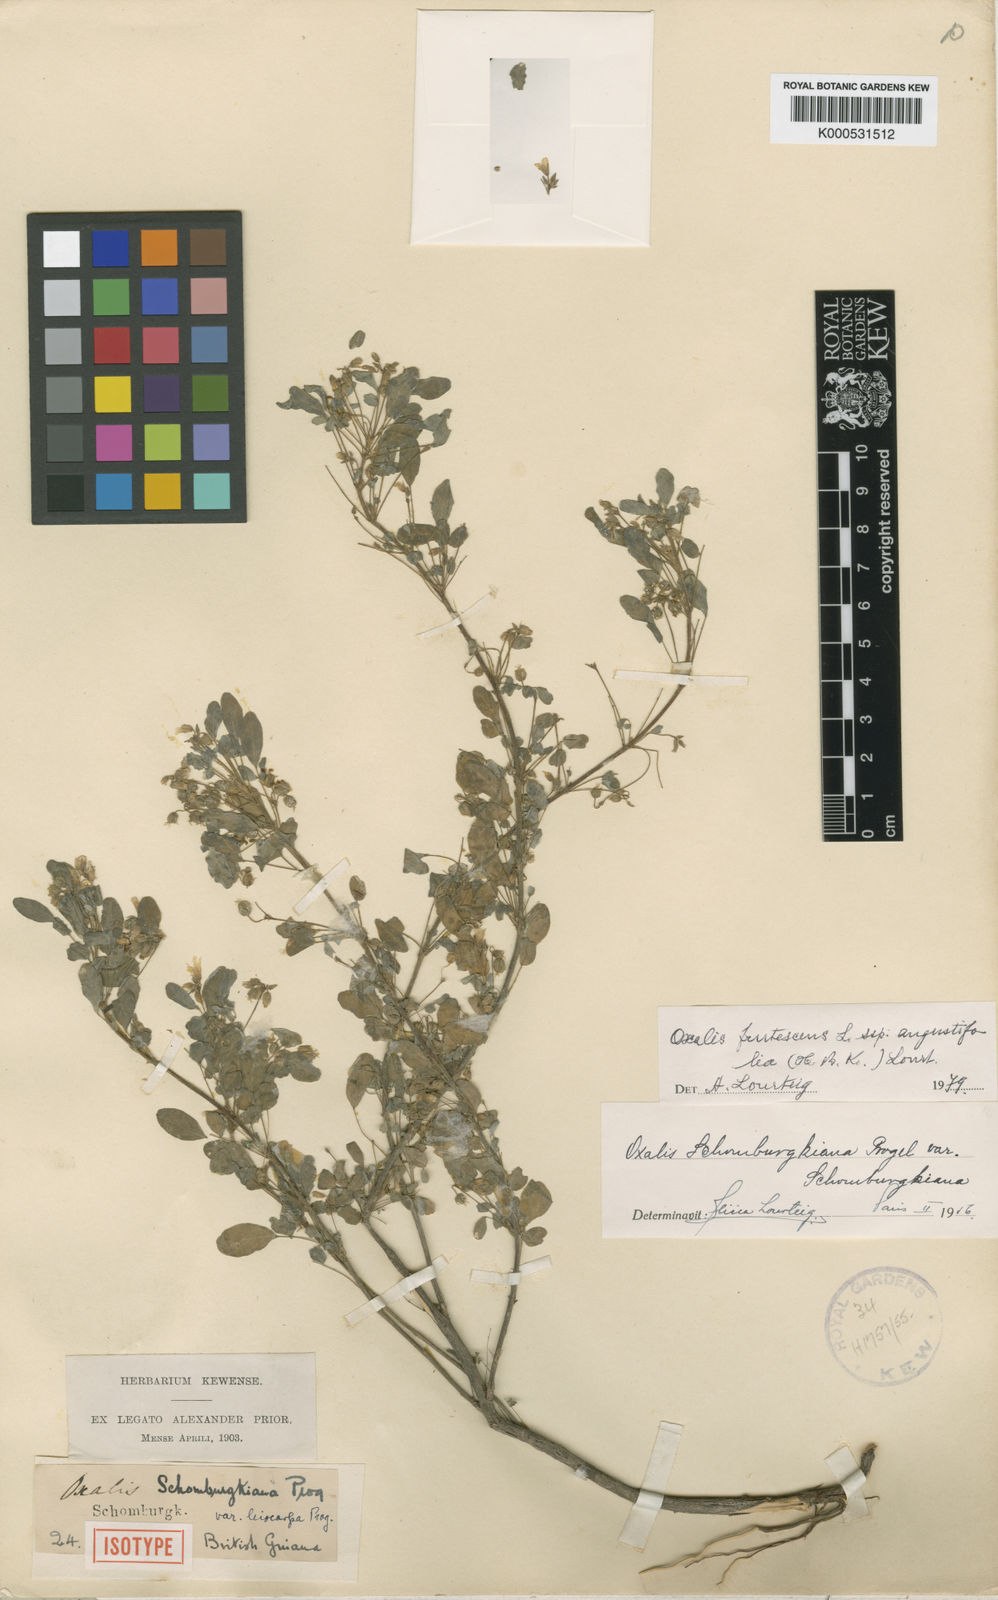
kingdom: Plantae
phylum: Tracheophyta
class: Magnoliopsida
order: Oxalidales
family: Oxalidaceae
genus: Oxalis
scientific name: Oxalis frutescens
